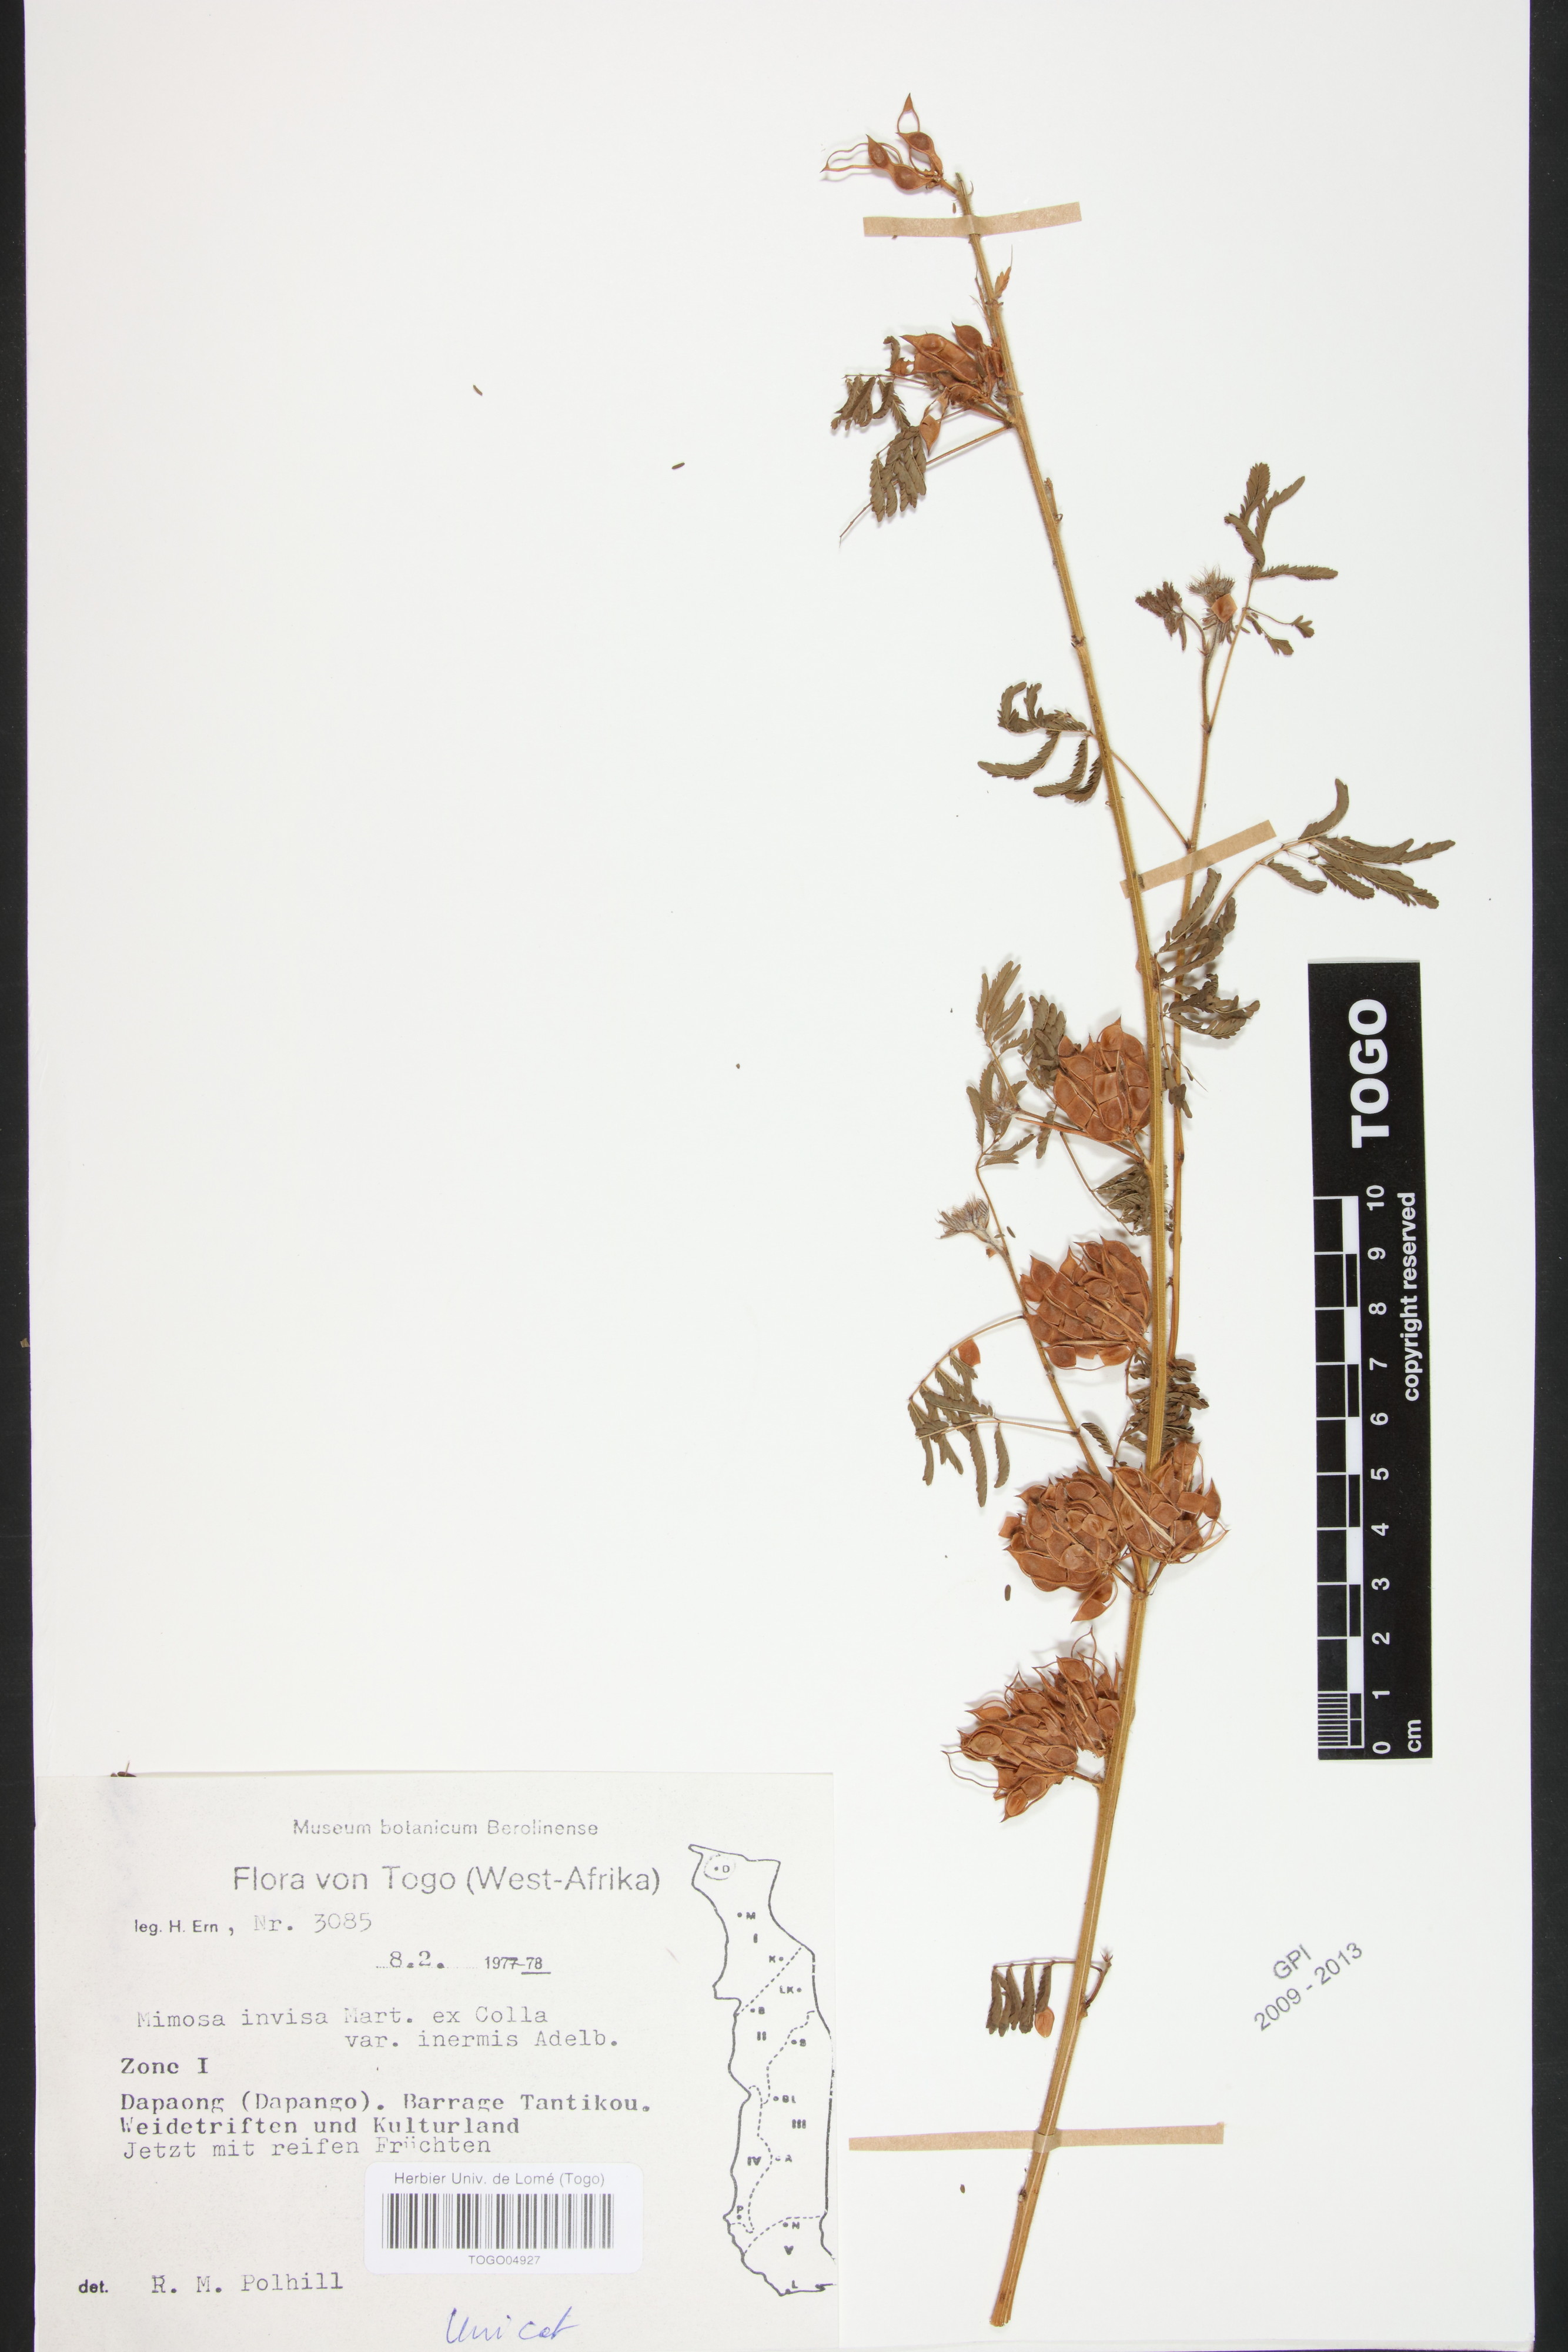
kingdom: Plantae
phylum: Tracheophyta
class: Magnoliopsida
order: Fabales
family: Fabaceae
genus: Mimosa
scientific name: Mimosa diplotricha
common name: Giant sensitive-plant
